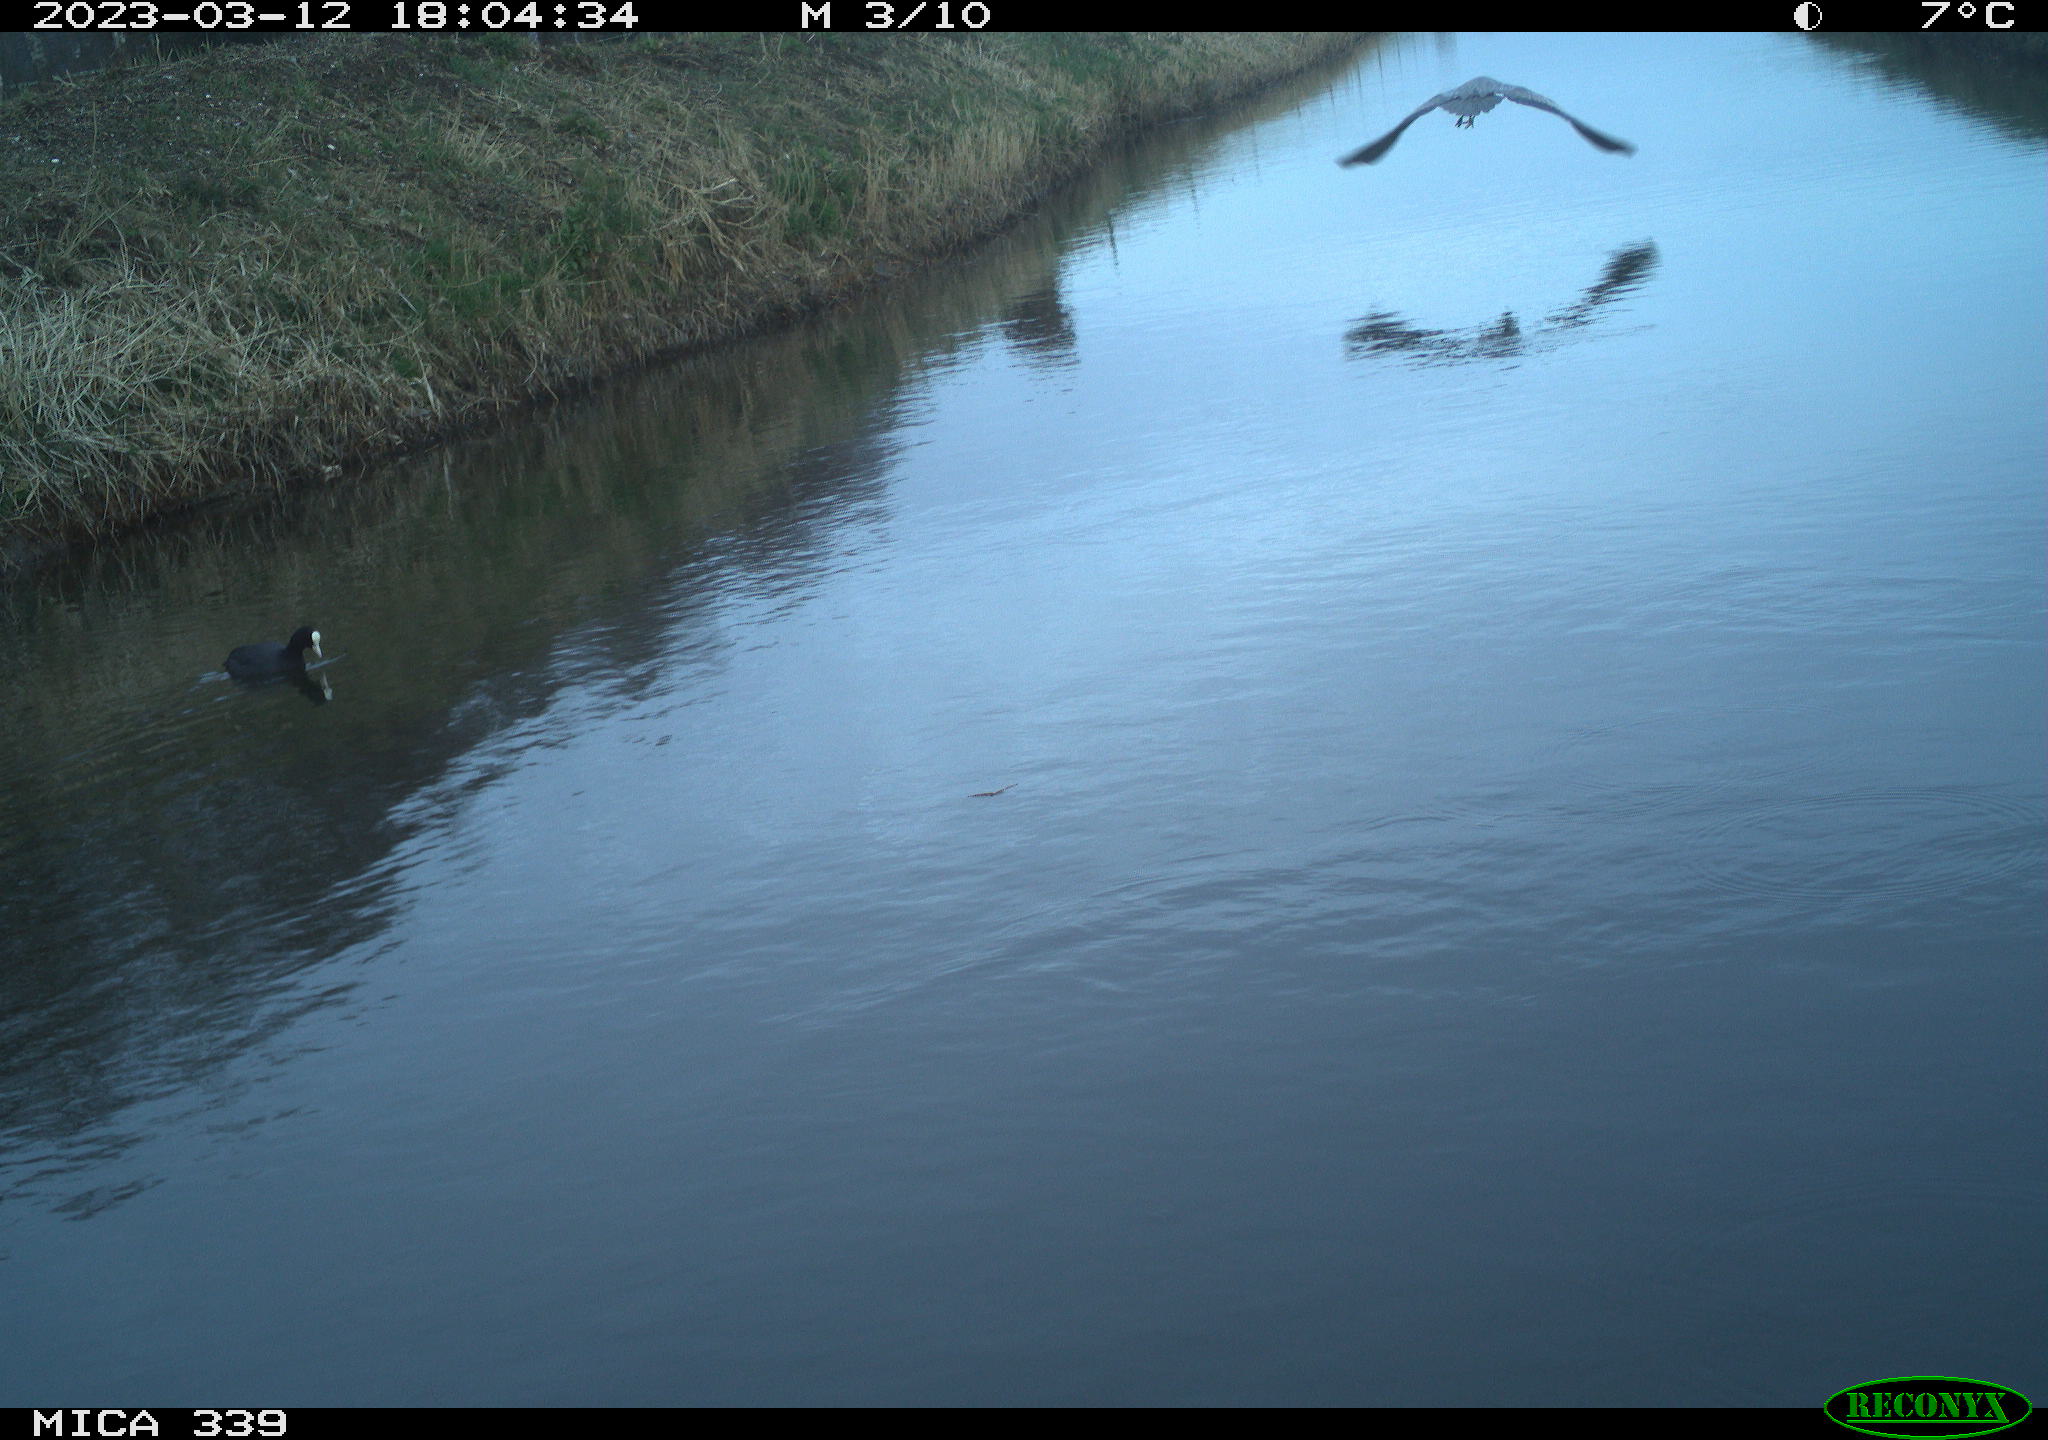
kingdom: Animalia
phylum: Chordata
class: Aves
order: Gruiformes
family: Rallidae
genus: Fulica
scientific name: Fulica atra
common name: Eurasian coot
